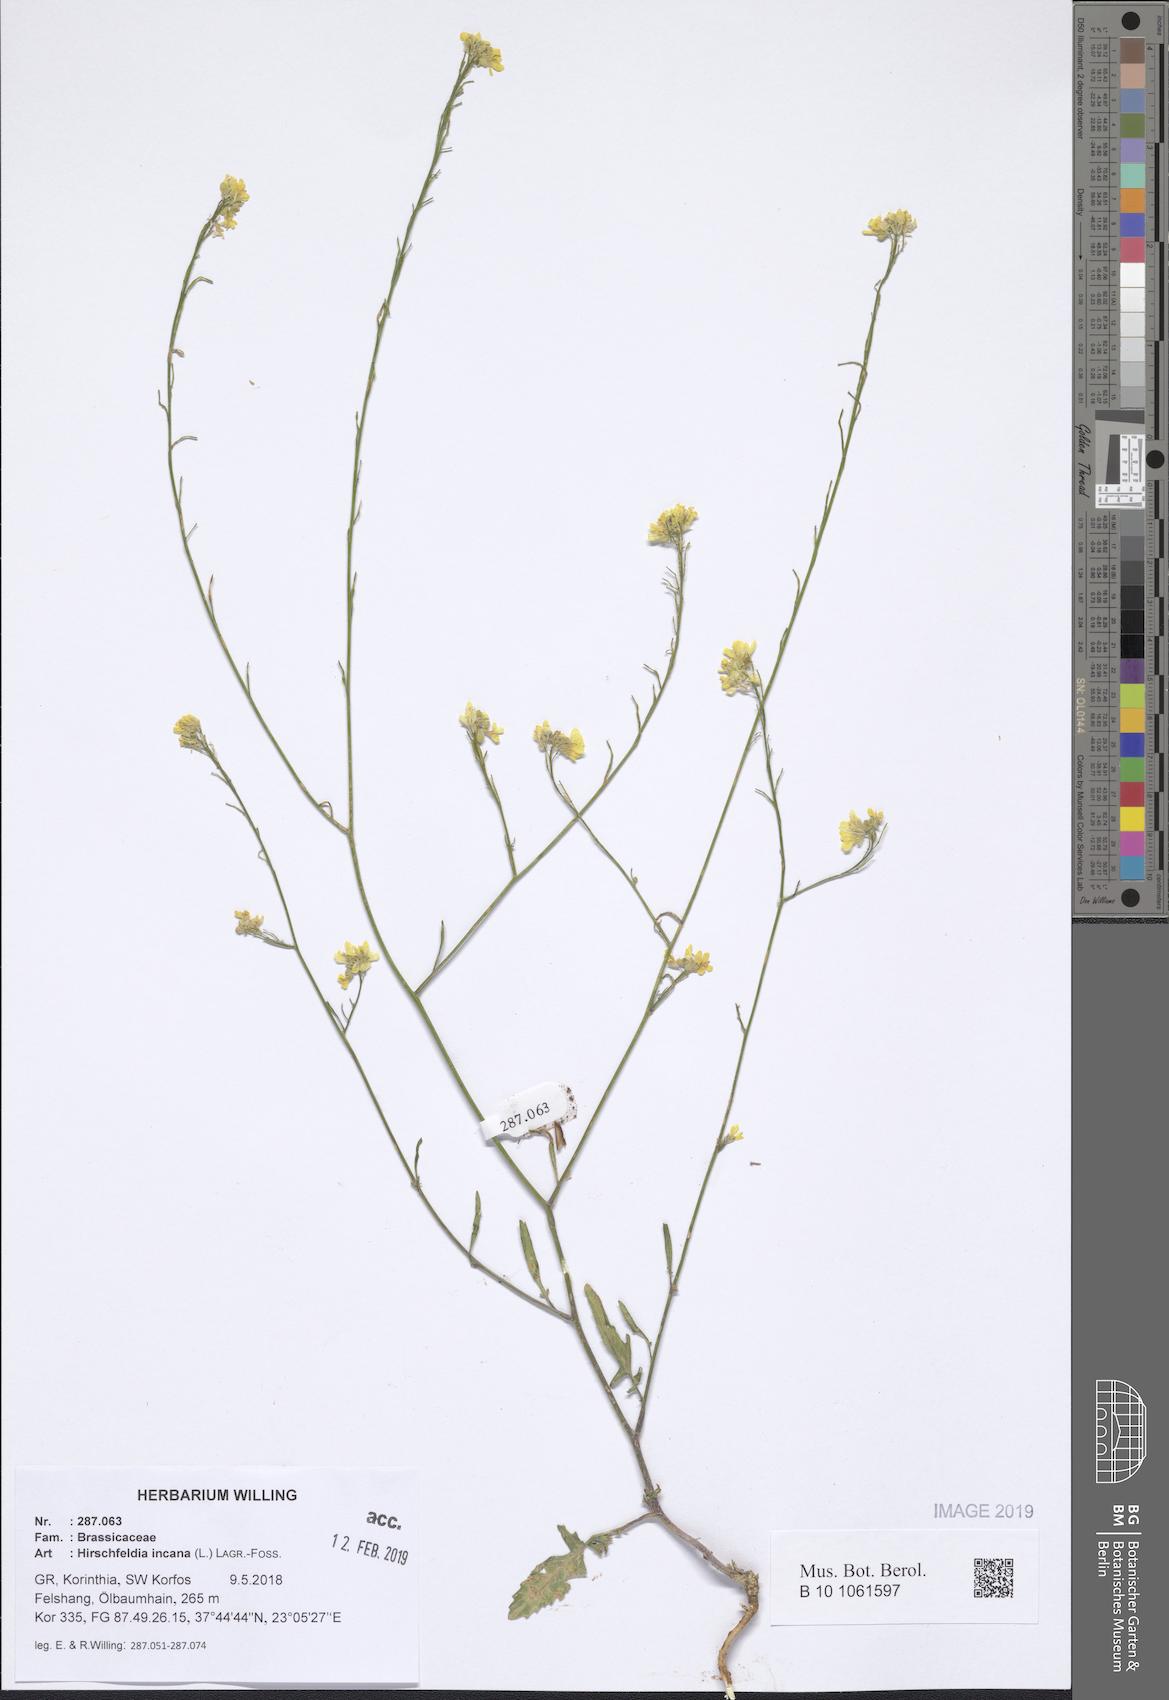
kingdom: Plantae
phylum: Tracheophyta
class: Magnoliopsida
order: Brassicales
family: Brassicaceae
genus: Hirschfeldia
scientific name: Hirschfeldia incana
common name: Hoary mustard
